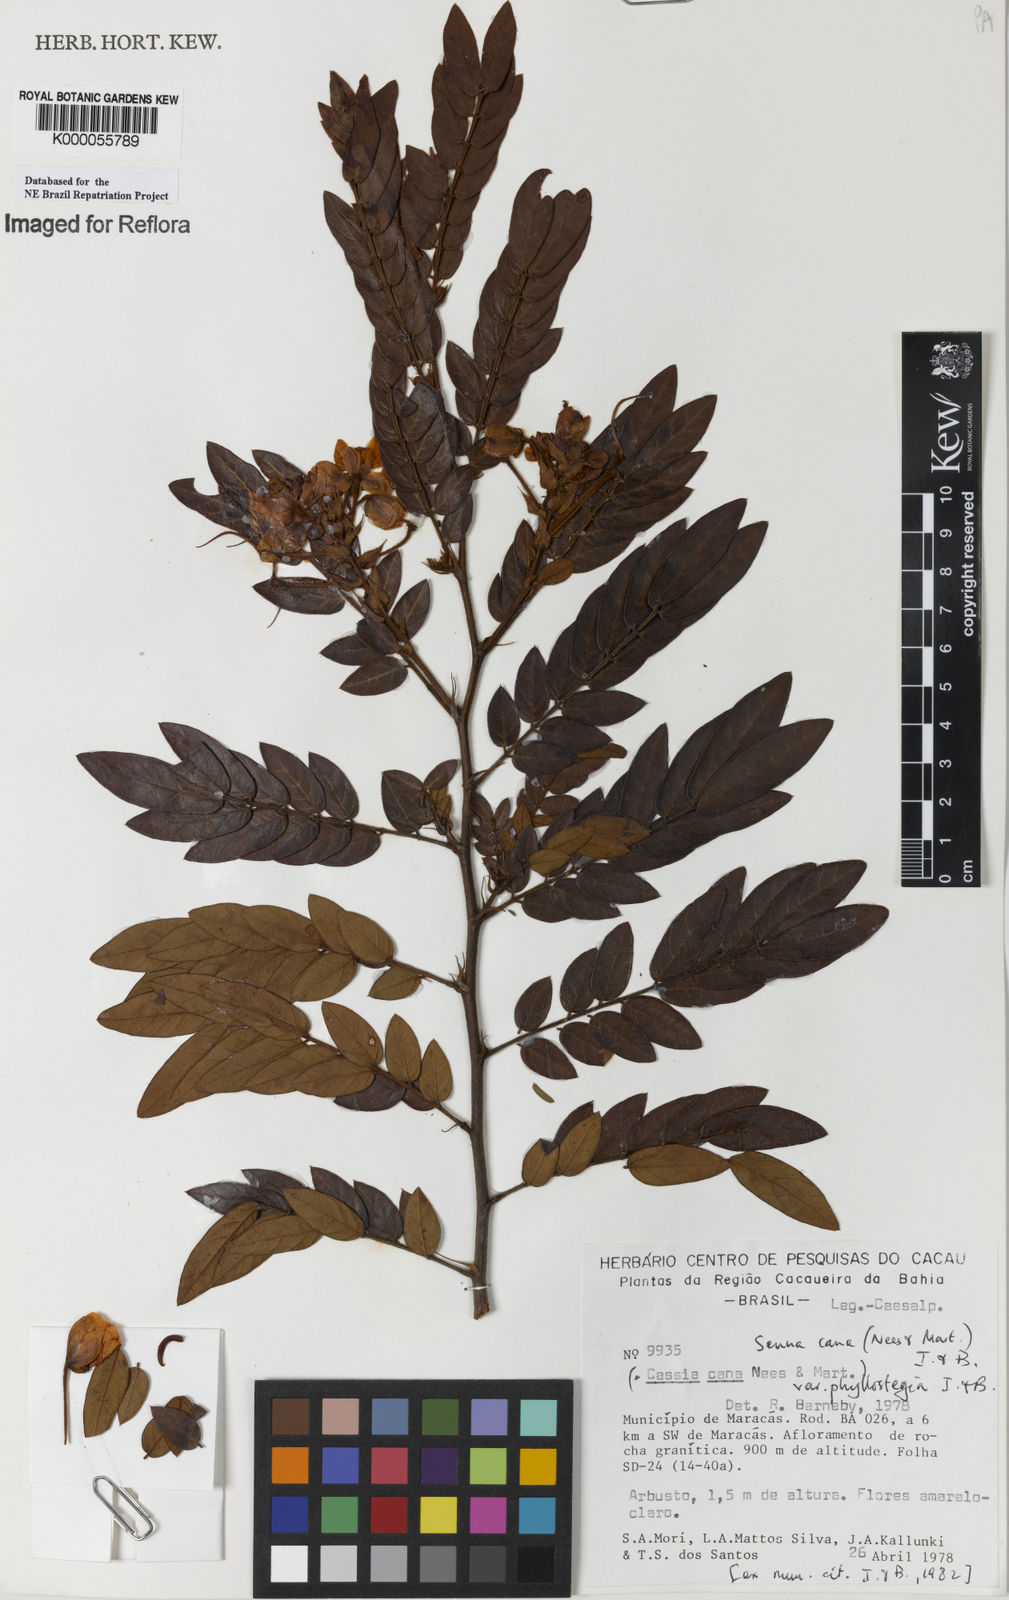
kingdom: Plantae
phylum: Tracheophyta
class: Magnoliopsida
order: Fabales
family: Fabaceae
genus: Senna
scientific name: Senna cana
